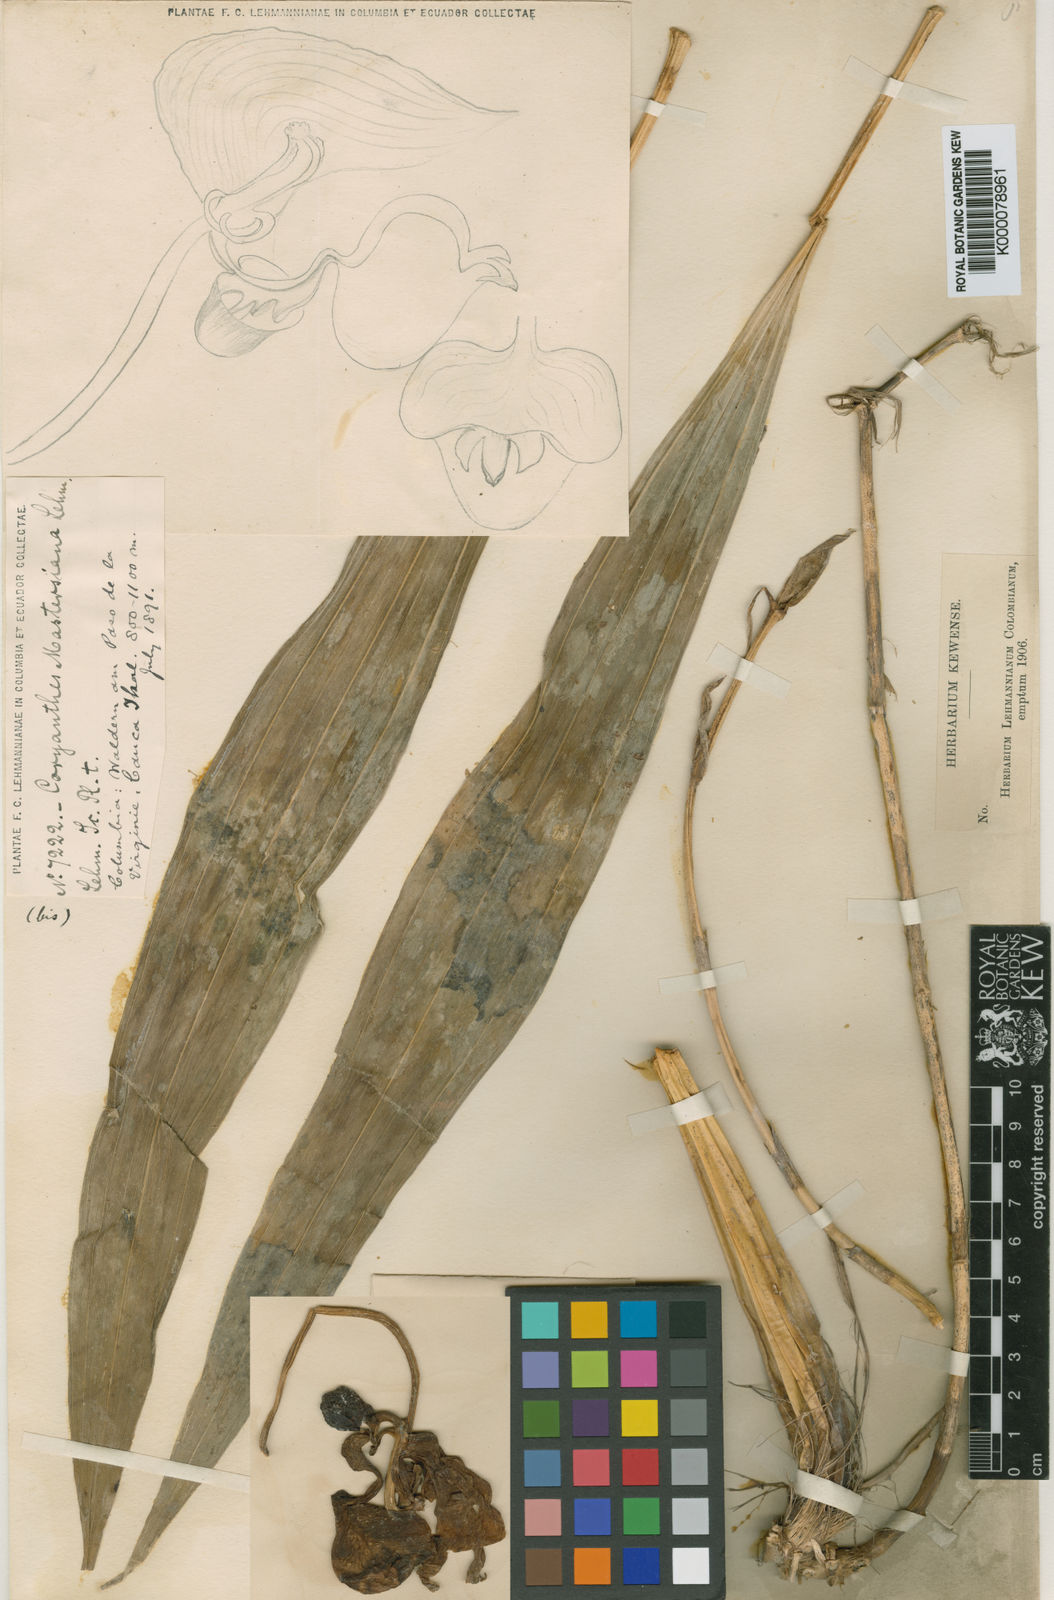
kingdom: Plantae
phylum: Tracheophyta
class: Liliopsida
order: Asparagales
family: Orchidaceae
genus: Coryanthes
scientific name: Coryanthes mastersiana
